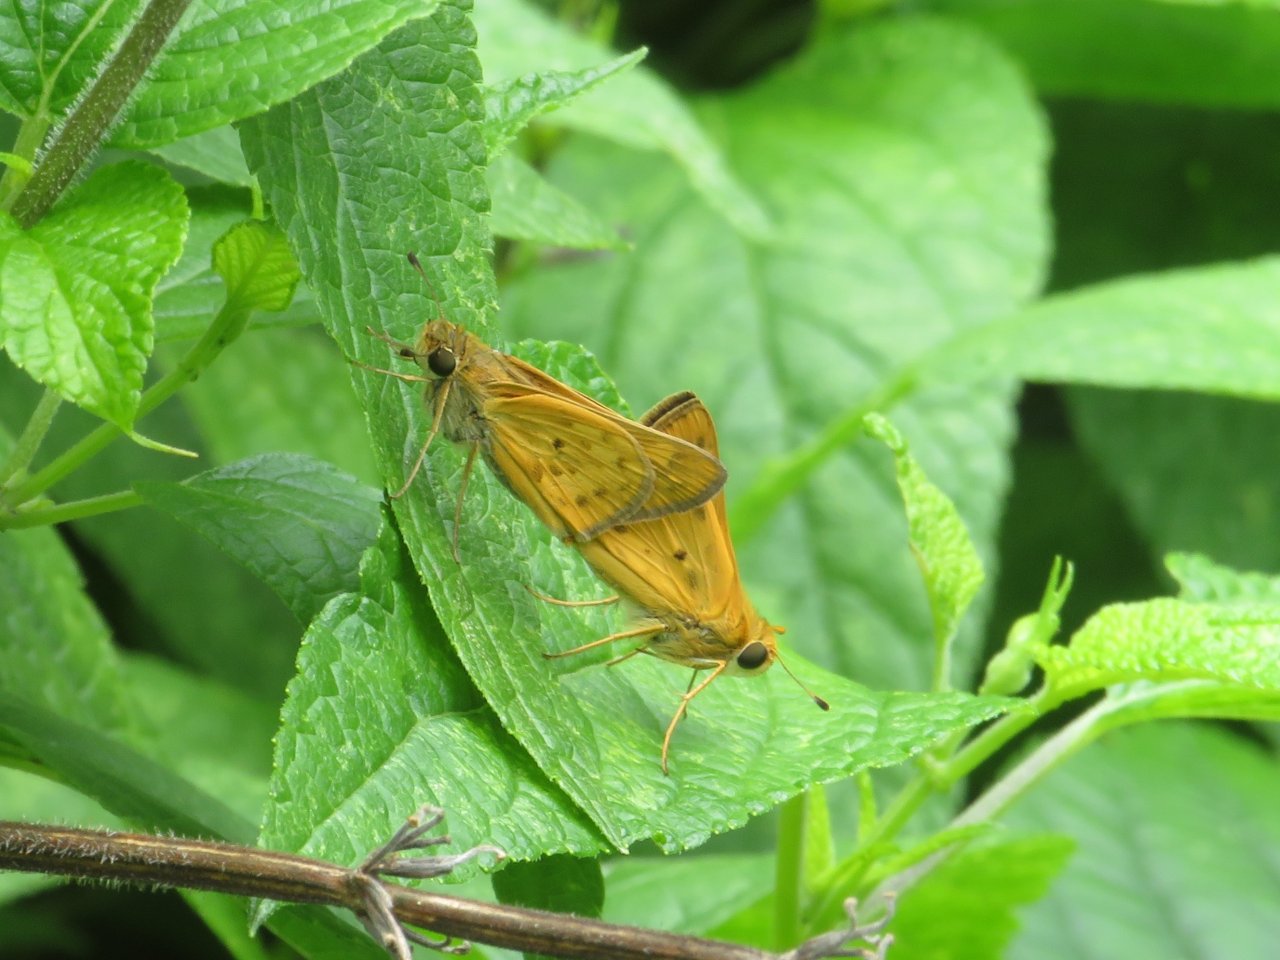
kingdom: Animalia
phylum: Arthropoda
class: Insecta
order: Lepidoptera
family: Hesperiidae
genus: Hylephila
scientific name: Hylephila phyleus
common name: Fiery Skipper
